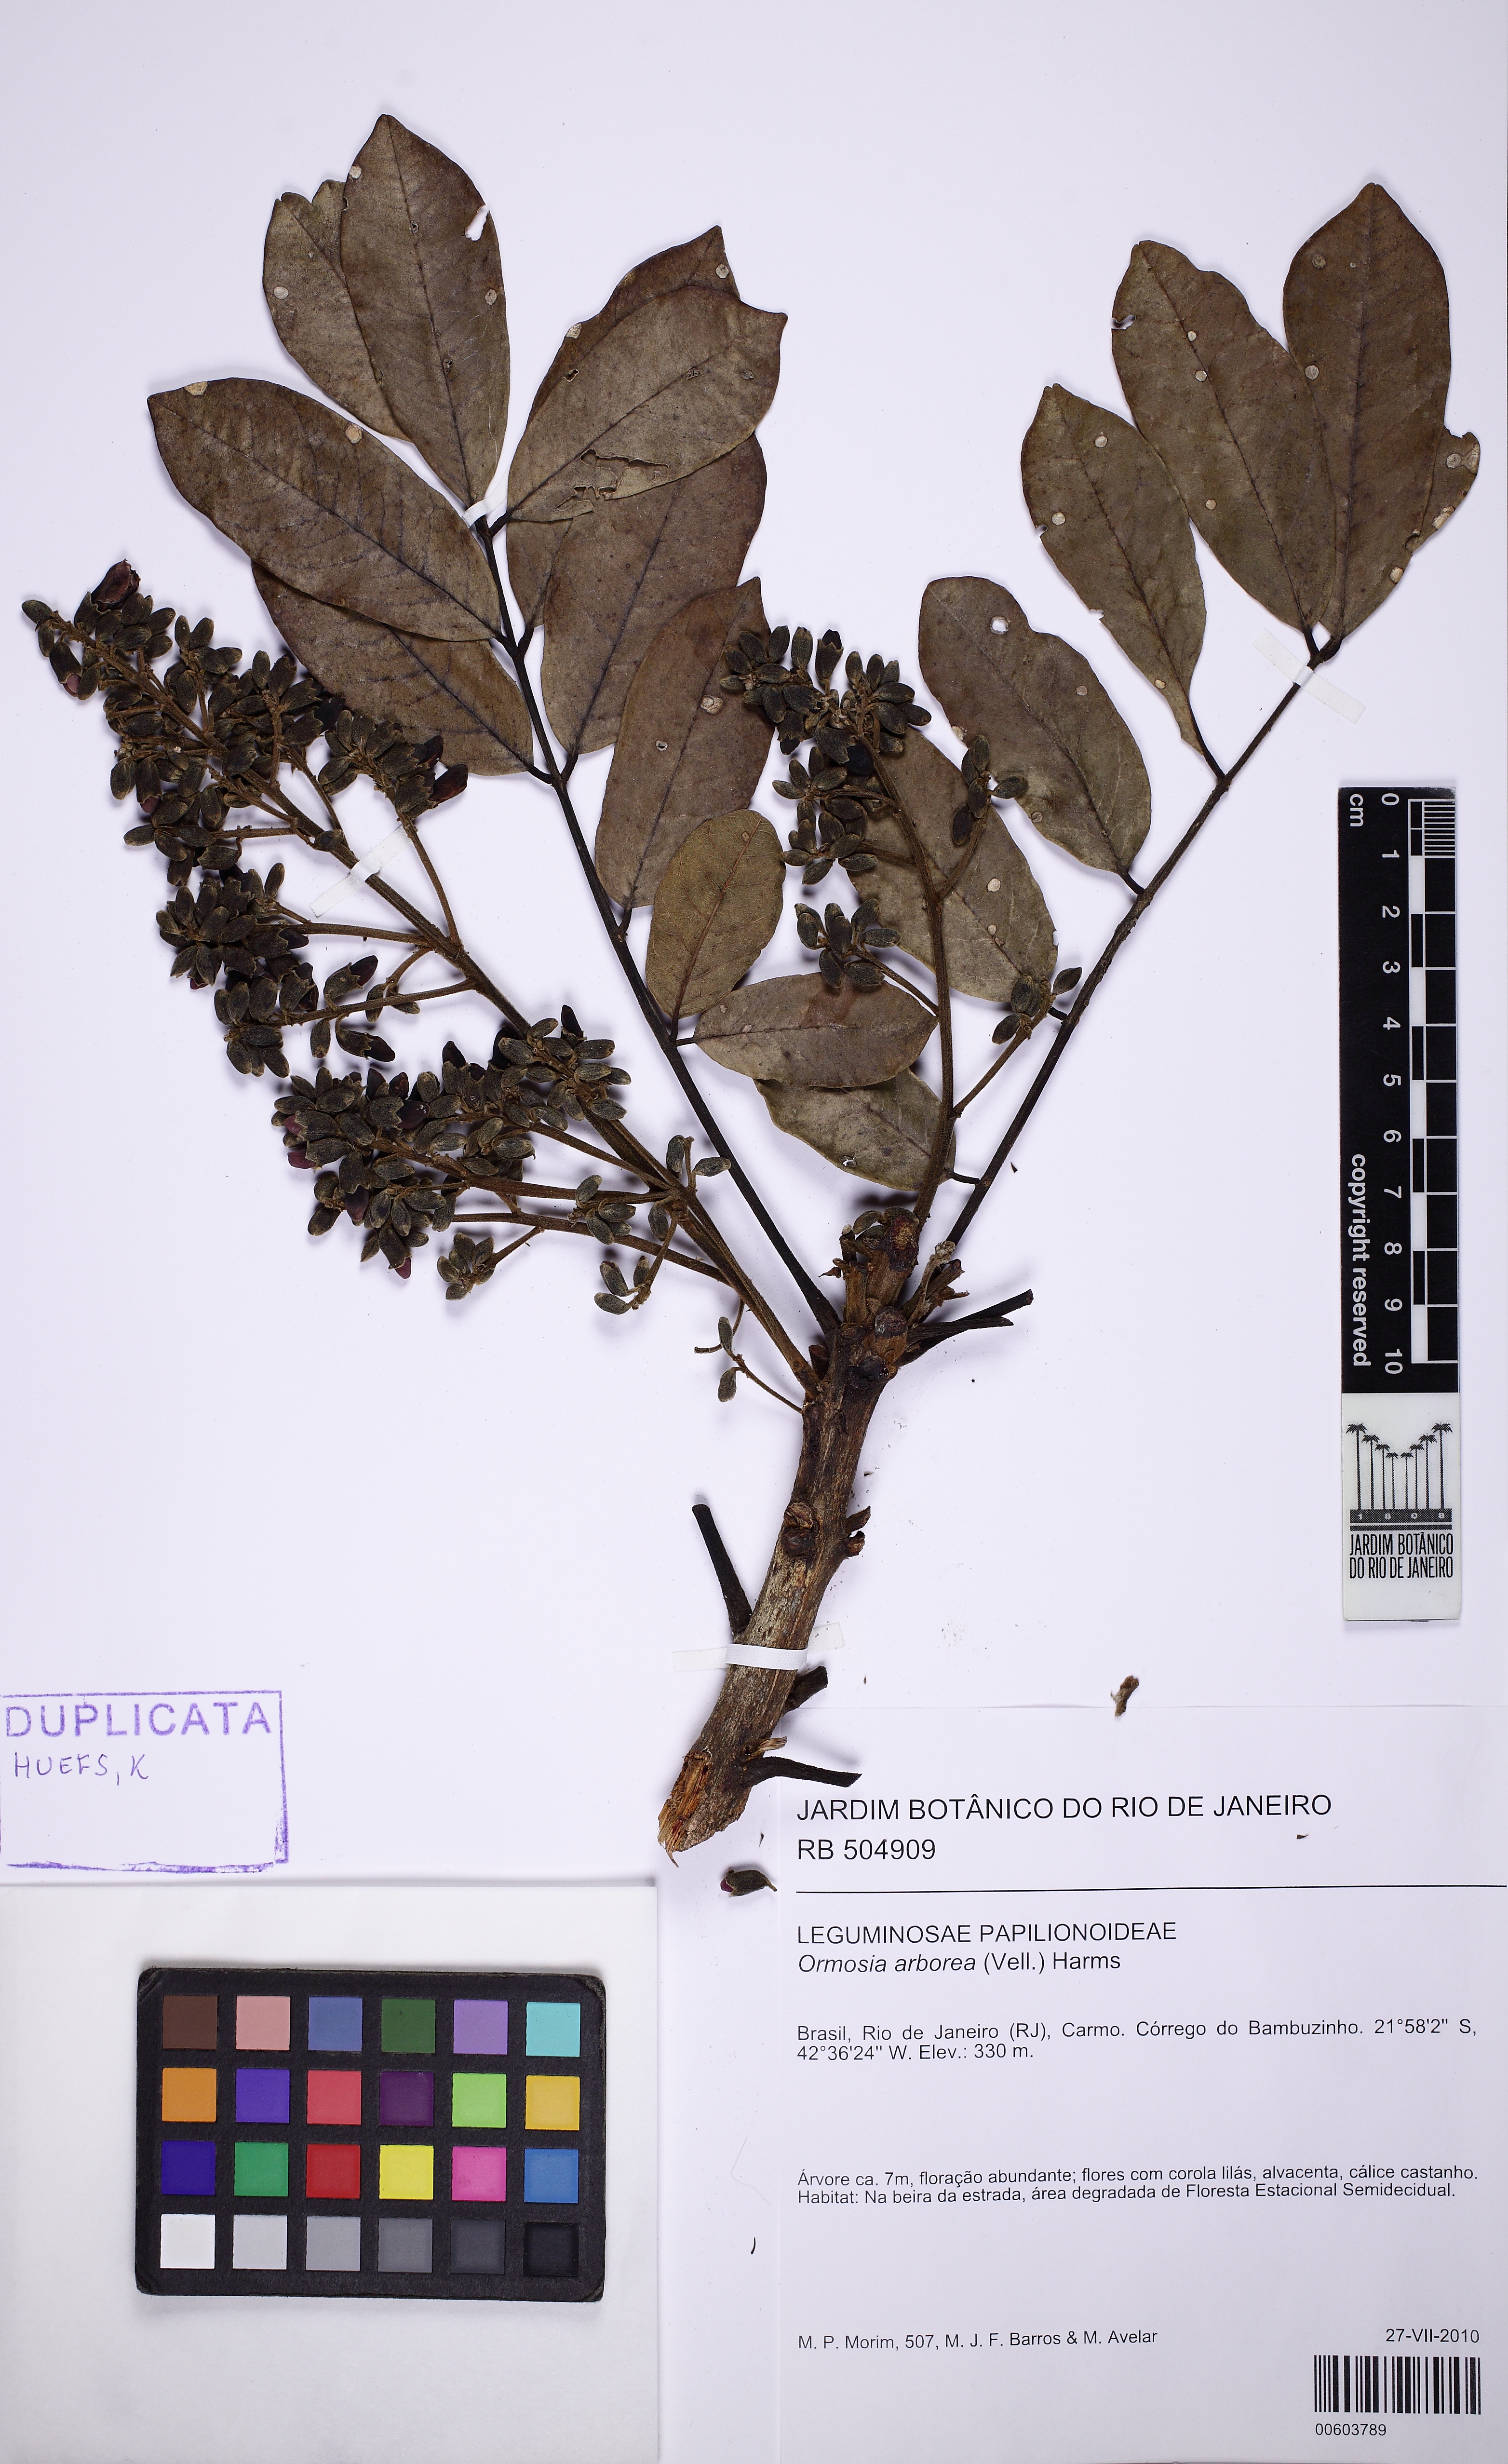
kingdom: Plantae
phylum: Tracheophyta
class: Magnoliopsida
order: Fabales
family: Fabaceae
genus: Ormosia
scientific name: Ormosia arborea
